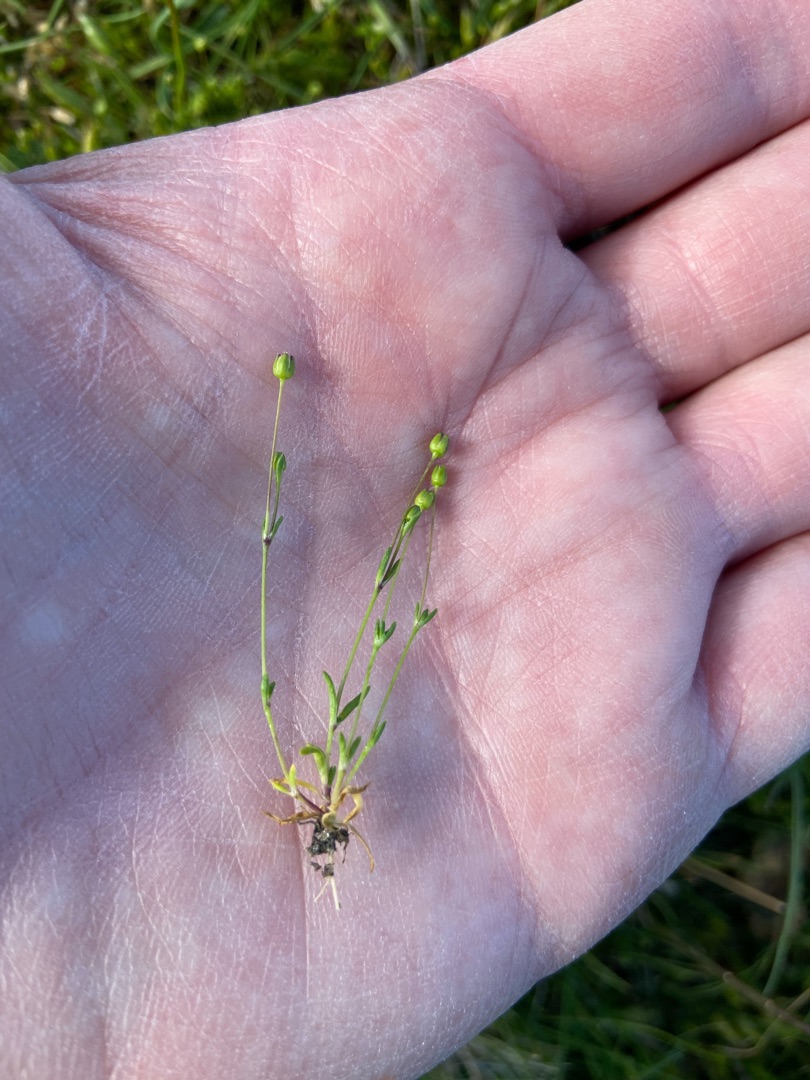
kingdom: Plantae
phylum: Tracheophyta
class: Magnoliopsida
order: Caryophyllales
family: Caryophyllaceae
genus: Sagina
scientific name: Sagina maritima
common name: Strand-firling
